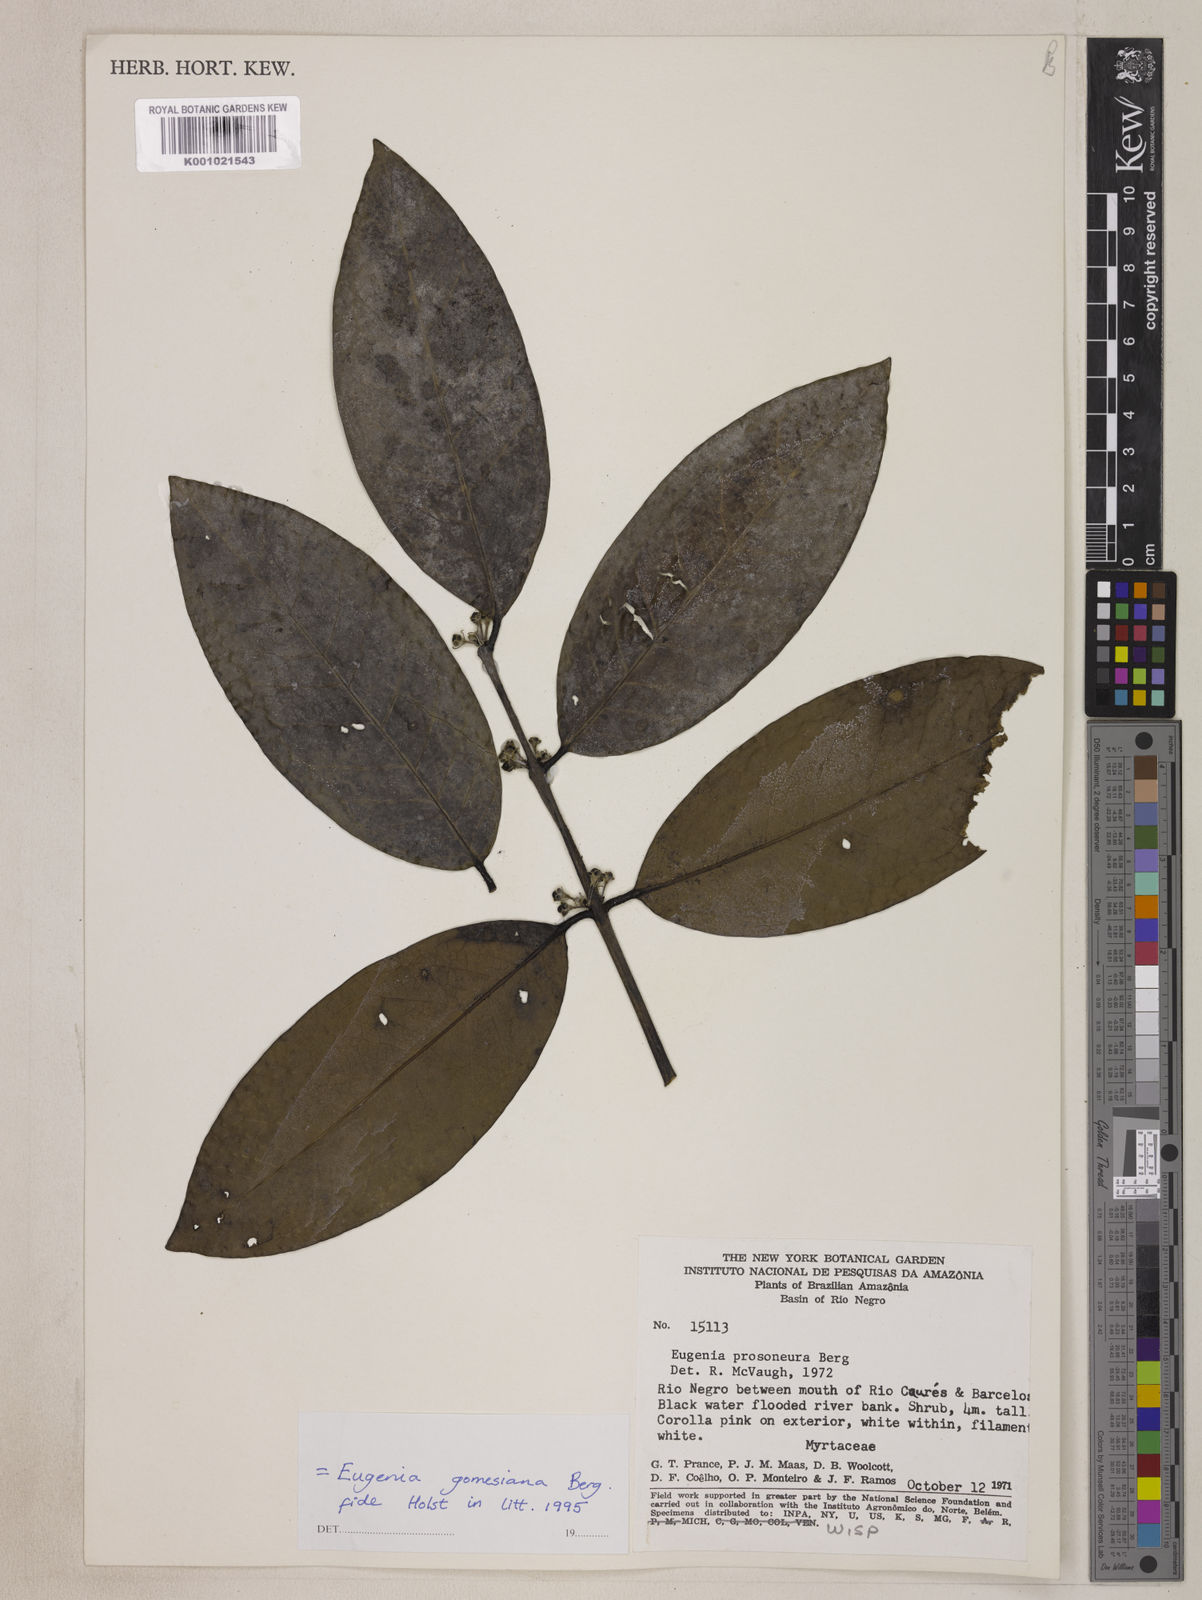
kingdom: Plantae
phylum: Tracheophyta
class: Magnoliopsida
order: Myrtales
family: Myrtaceae
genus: Eugenia
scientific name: Eugenia gomesiana
